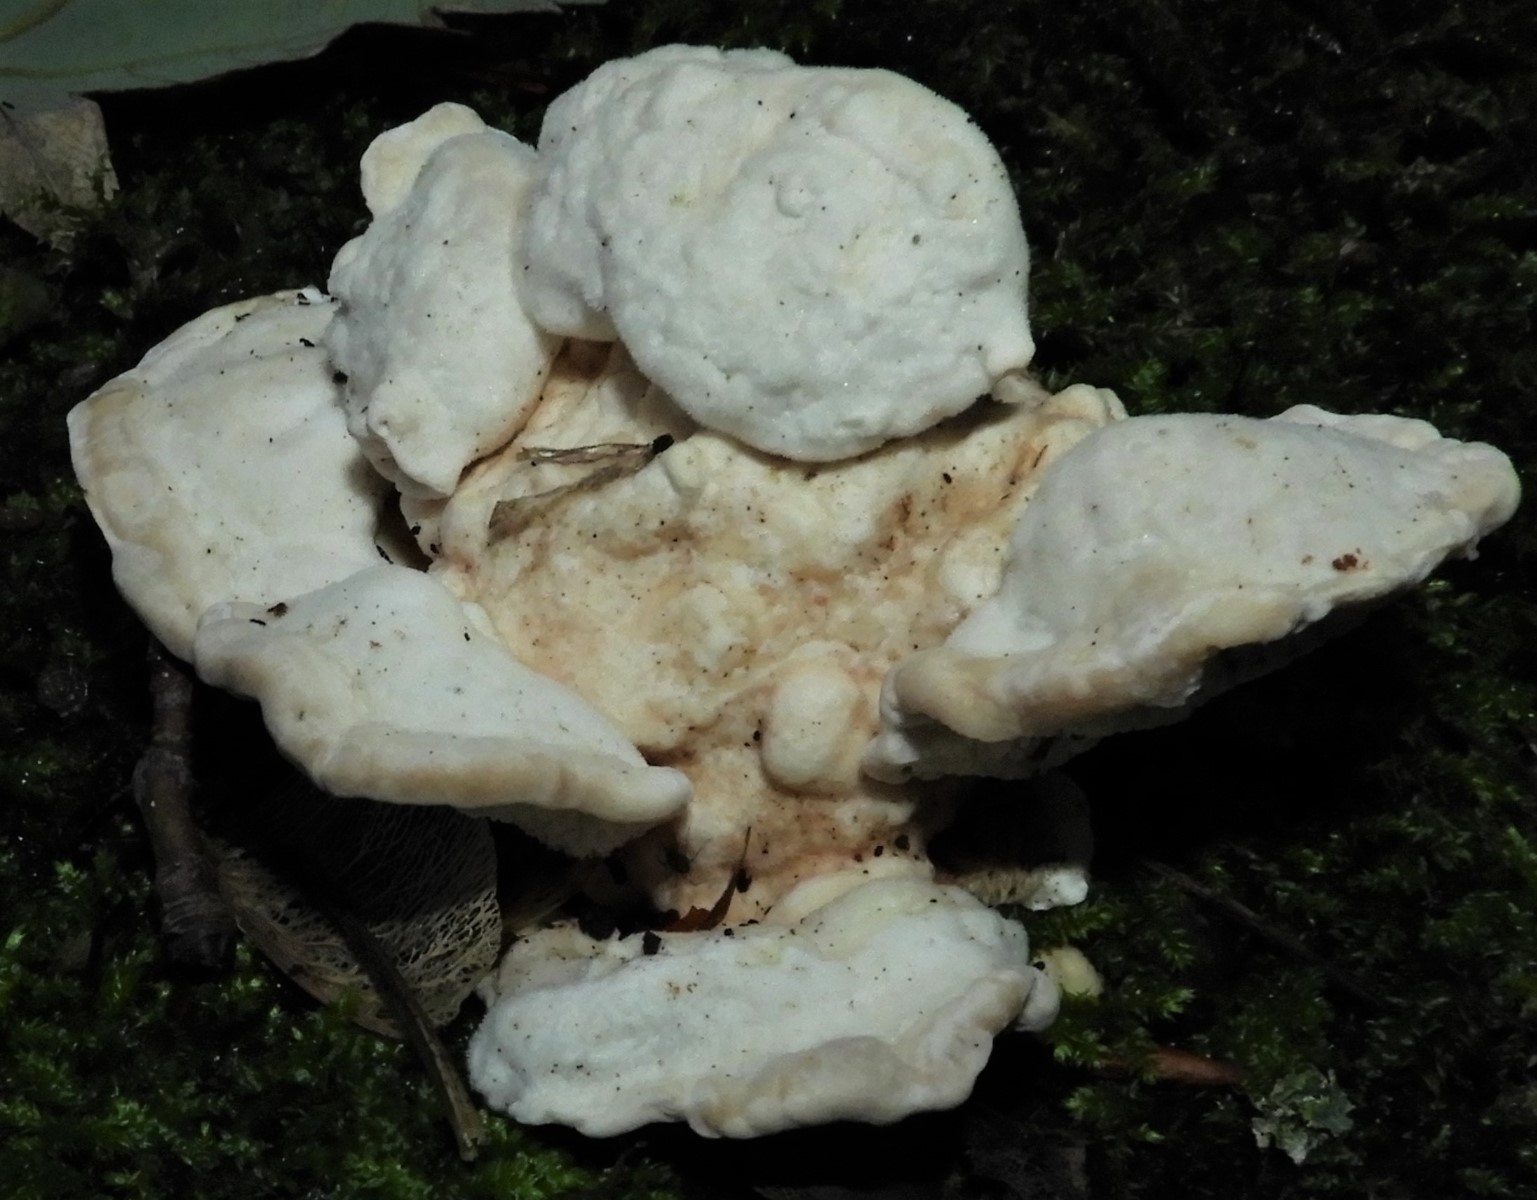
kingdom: Fungi
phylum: Basidiomycota
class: Agaricomycetes
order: Polyporales
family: Polyporaceae
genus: Trametes
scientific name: Trametes gibbosa
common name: puklet læderporesvamp
